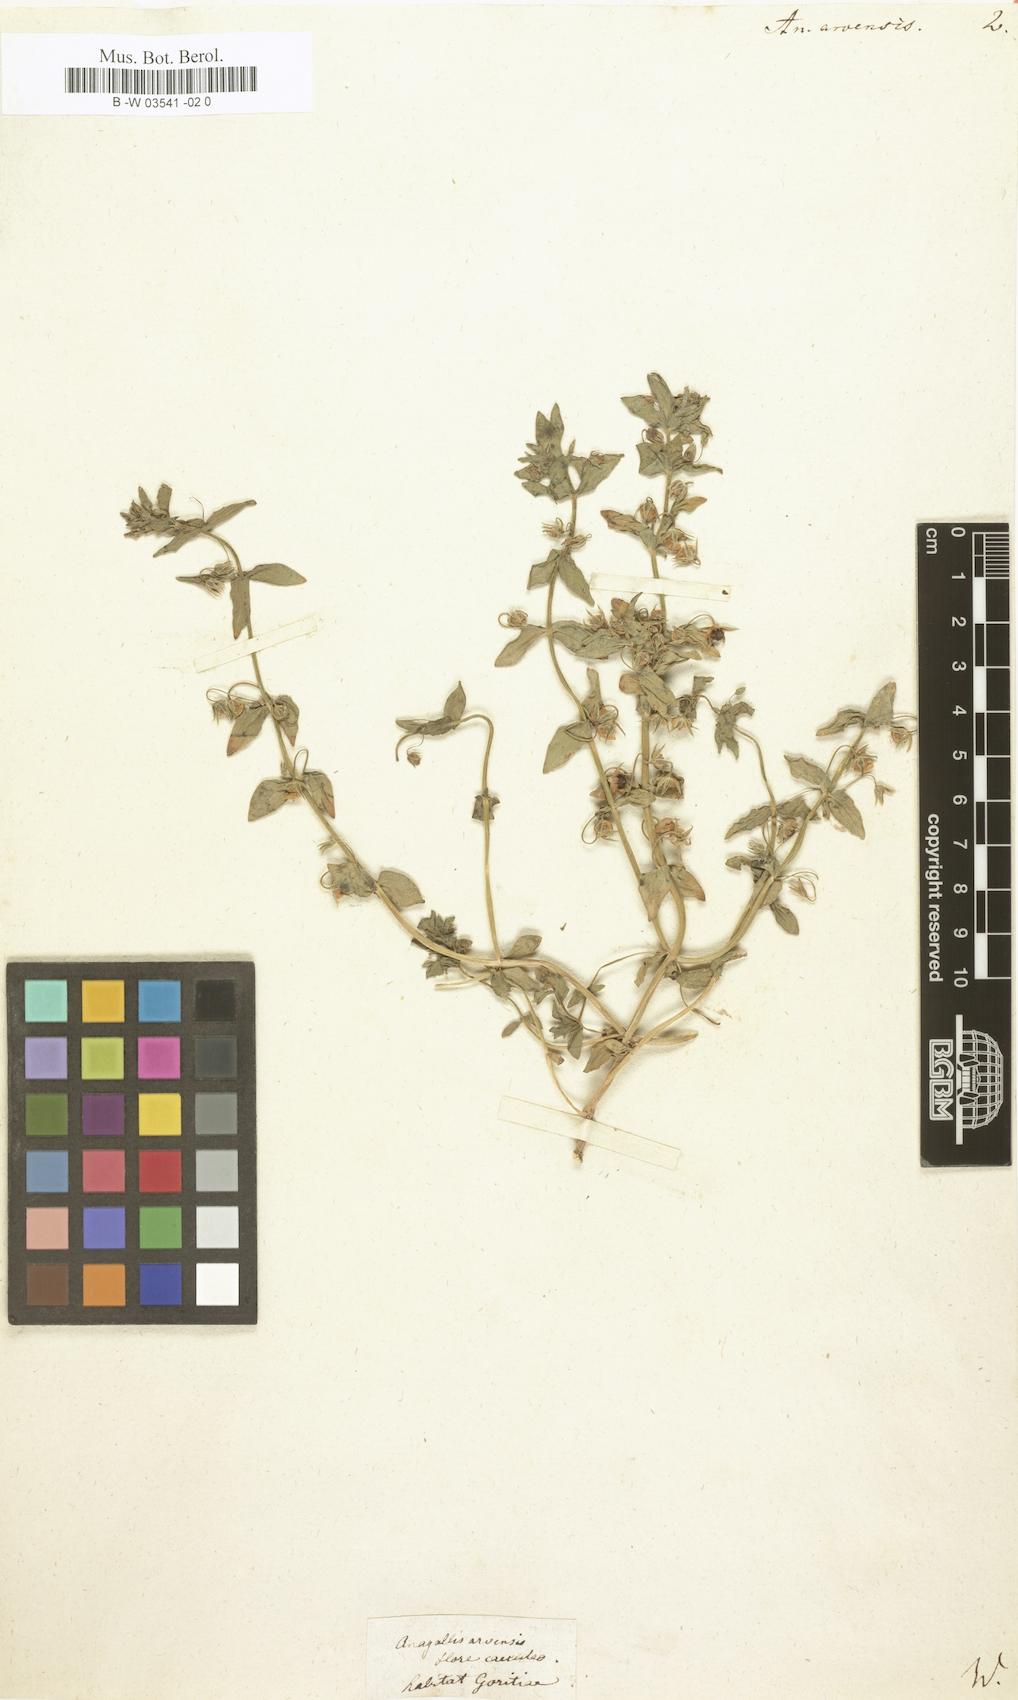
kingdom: Plantae
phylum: Tracheophyta
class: Magnoliopsida
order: Ericales
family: Primulaceae
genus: Lysimachia
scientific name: Lysimachia arvensis
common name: Scarlet pimpernel
